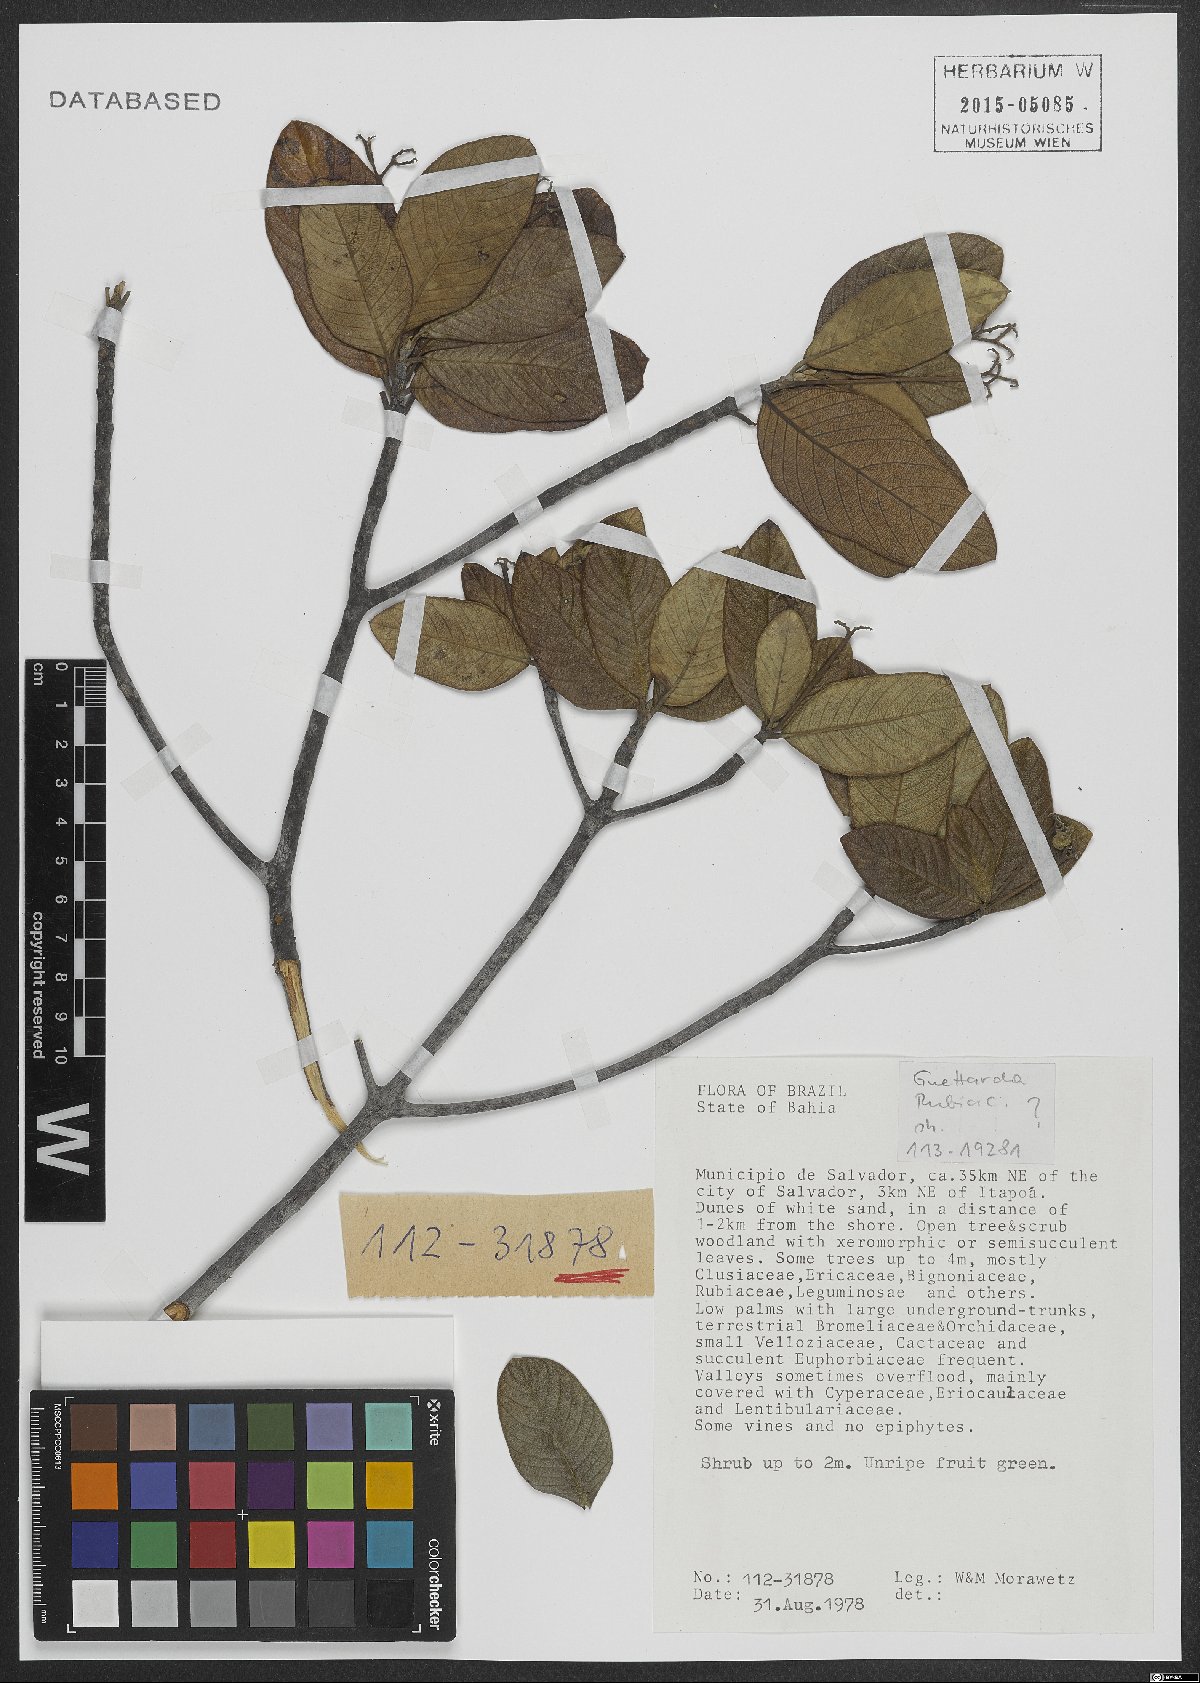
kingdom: Plantae
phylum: Tracheophyta
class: Magnoliopsida
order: Gentianales
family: Rubiaceae
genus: Guettarda
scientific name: Guettarda platypoda
